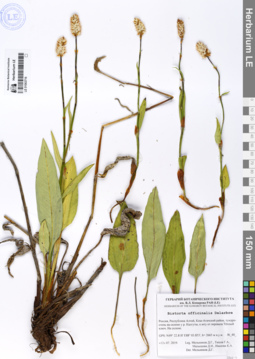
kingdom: Plantae
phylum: Tracheophyta
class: Magnoliopsida
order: Caryophyllales
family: Polygonaceae
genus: Bistorta
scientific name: Bistorta officinalis
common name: Common bistort
